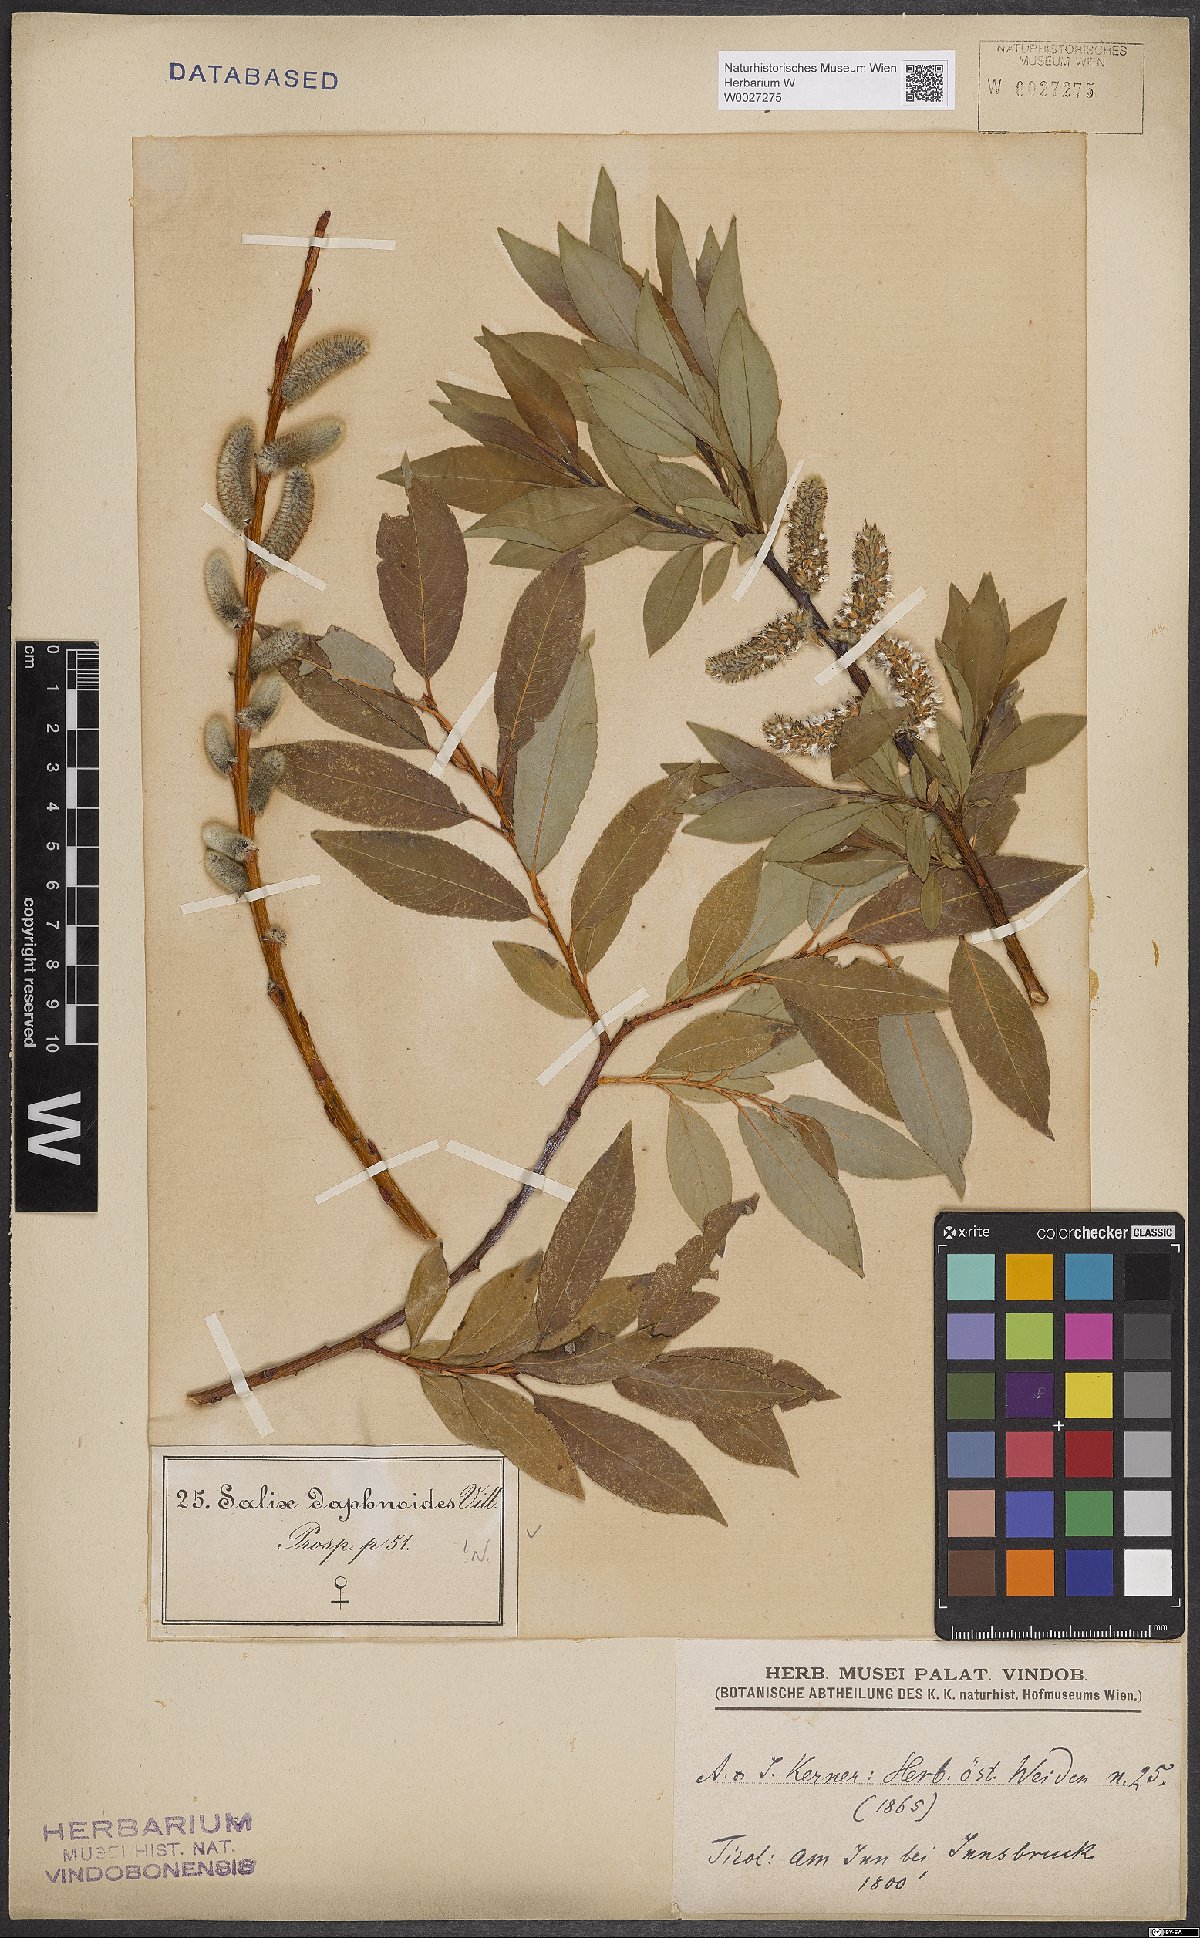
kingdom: Plantae
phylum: Tracheophyta
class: Magnoliopsida
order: Malpighiales
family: Salicaceae
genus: Salix
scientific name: Salix daphnoides
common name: European violet-willow
